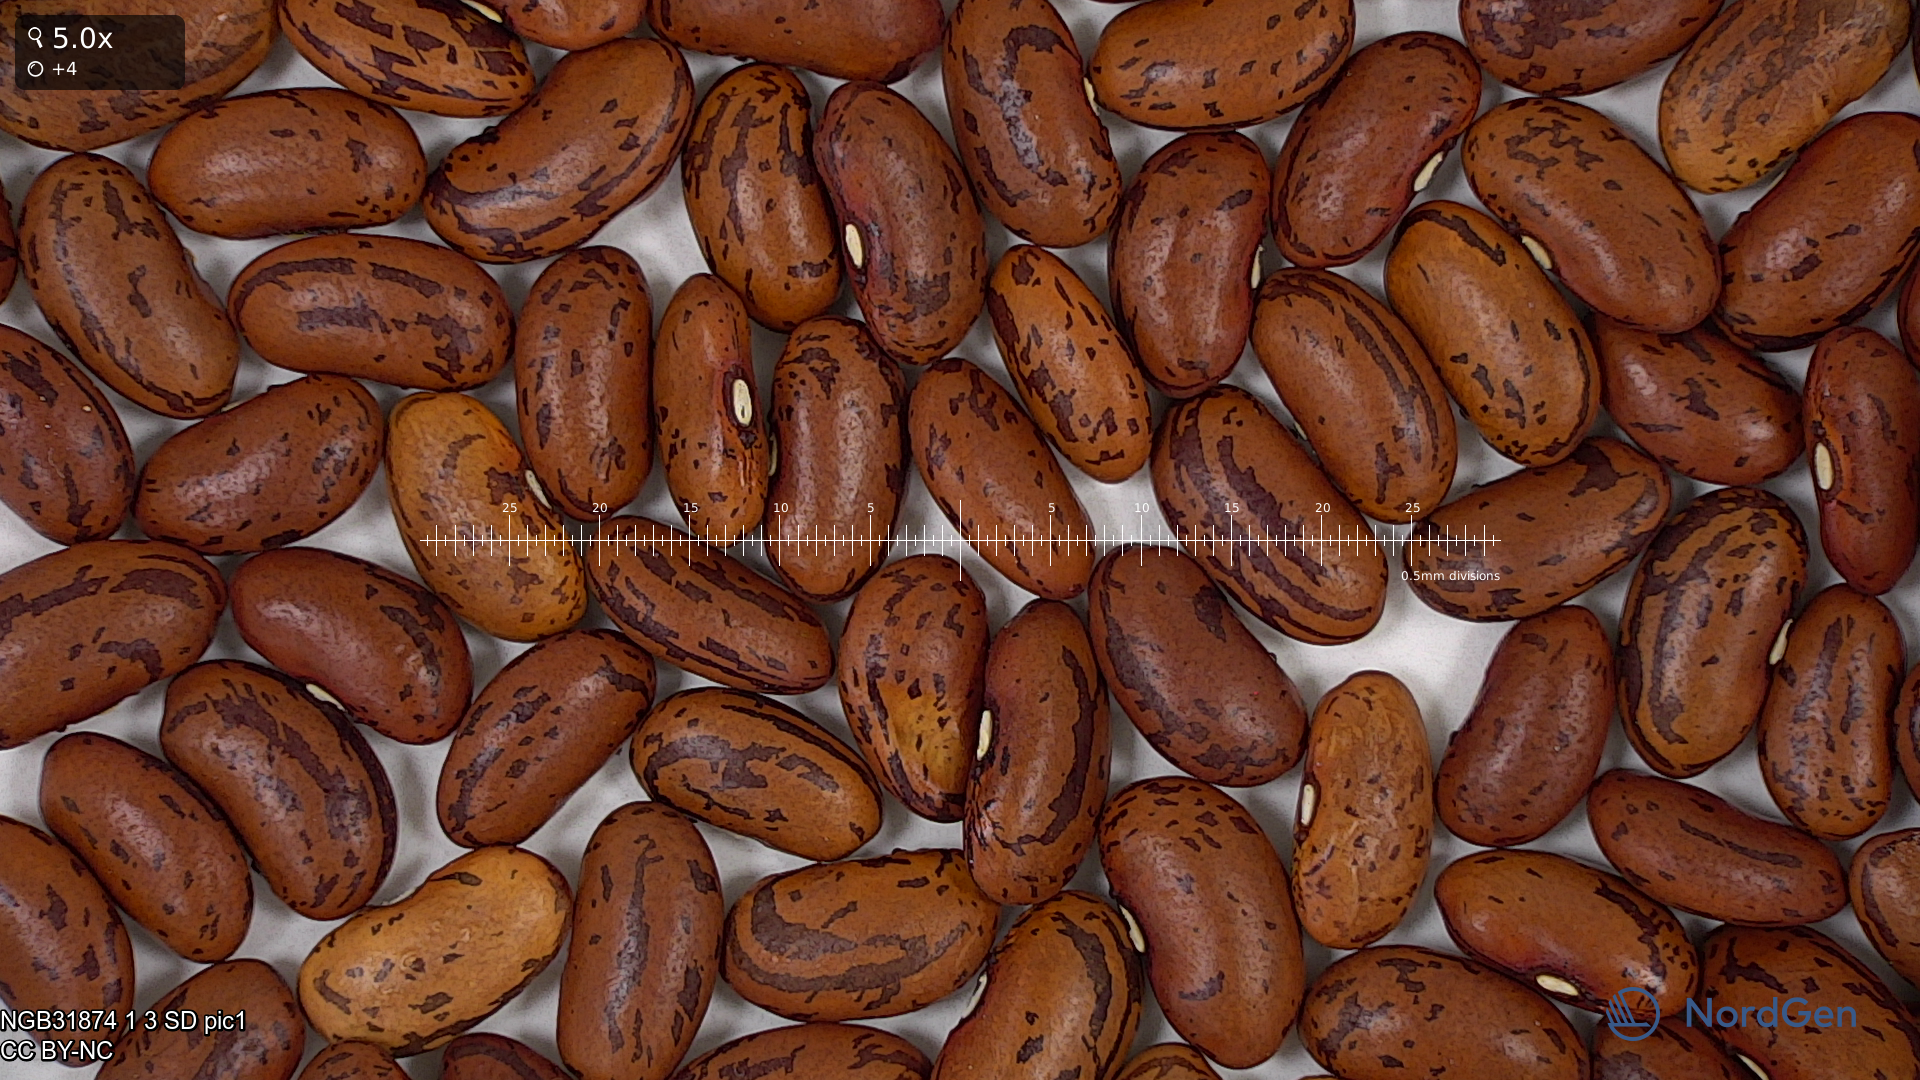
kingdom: Plantae
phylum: Tracheophyta
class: Magnoliopsida
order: Fabales
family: Fabaceae
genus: Phaseolus
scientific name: Phaseolus vulgaris
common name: Bean
